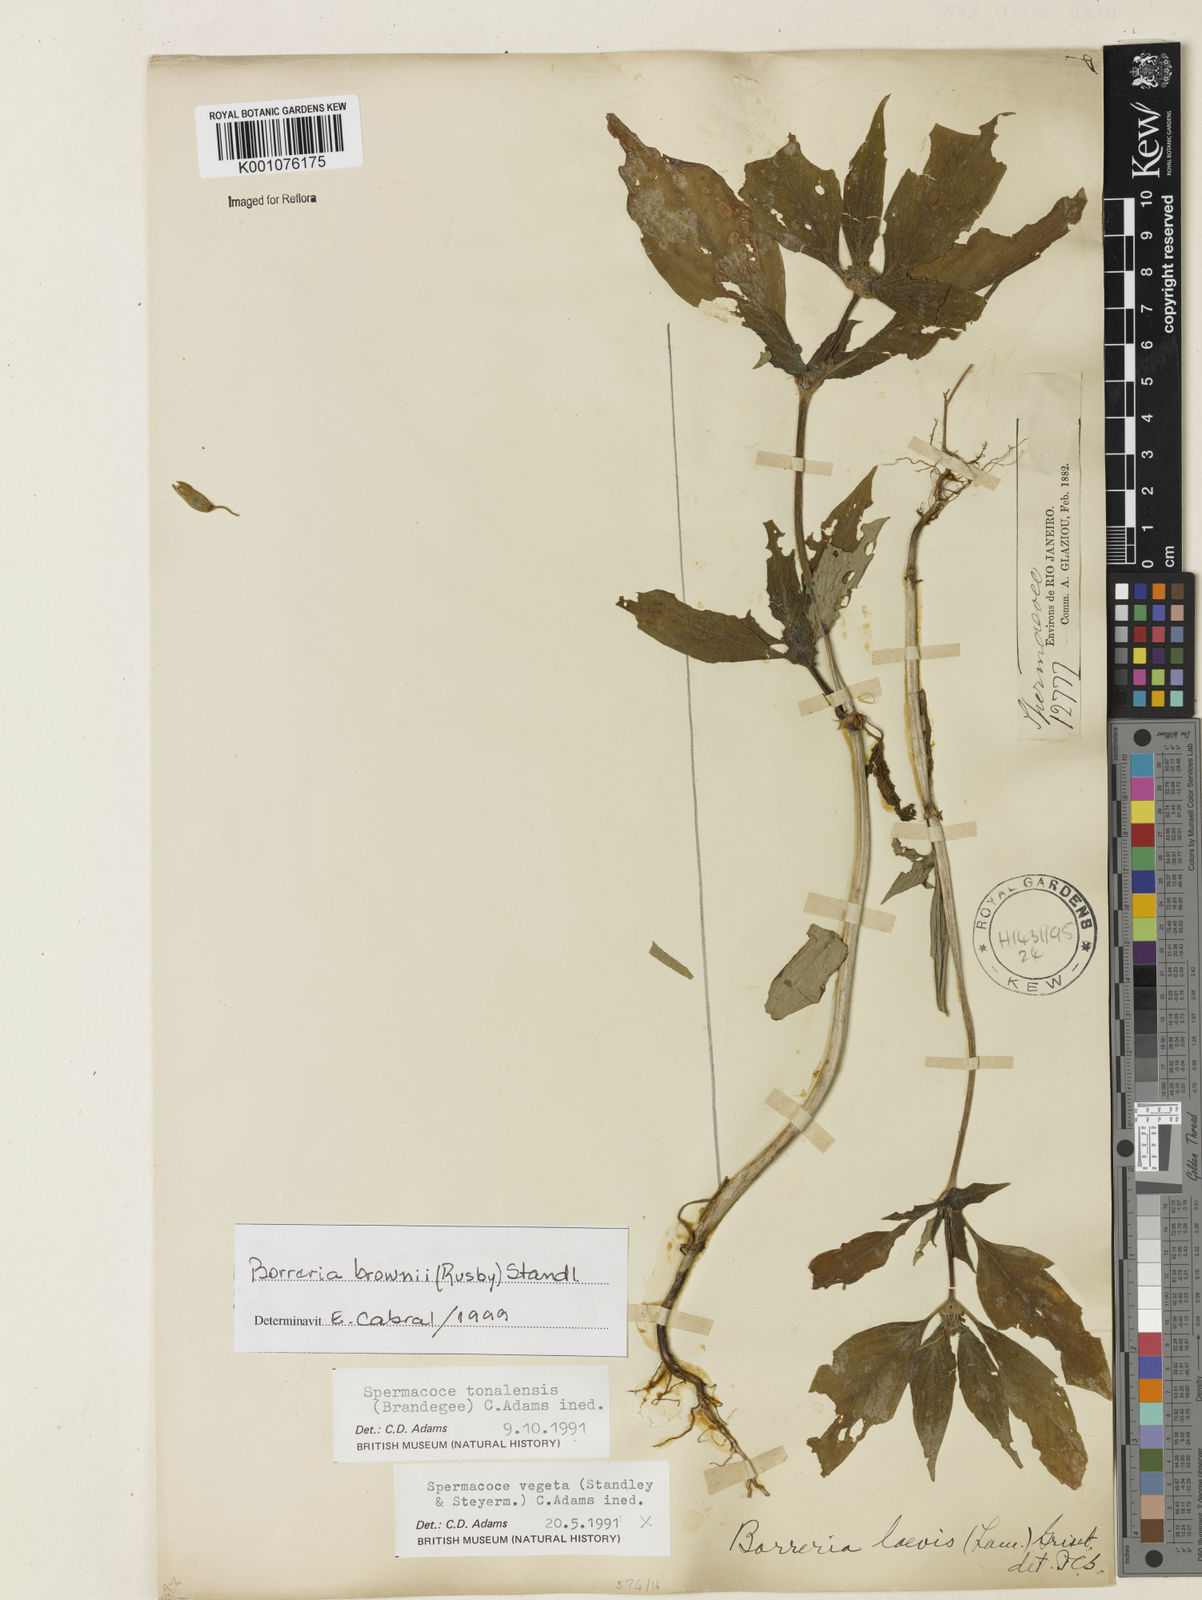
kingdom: Plantae
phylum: Tracheophyta
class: Magnoliopsida
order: Gentianales
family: Rubiaceae
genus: Spermacoce
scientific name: Spermacoce brownii
